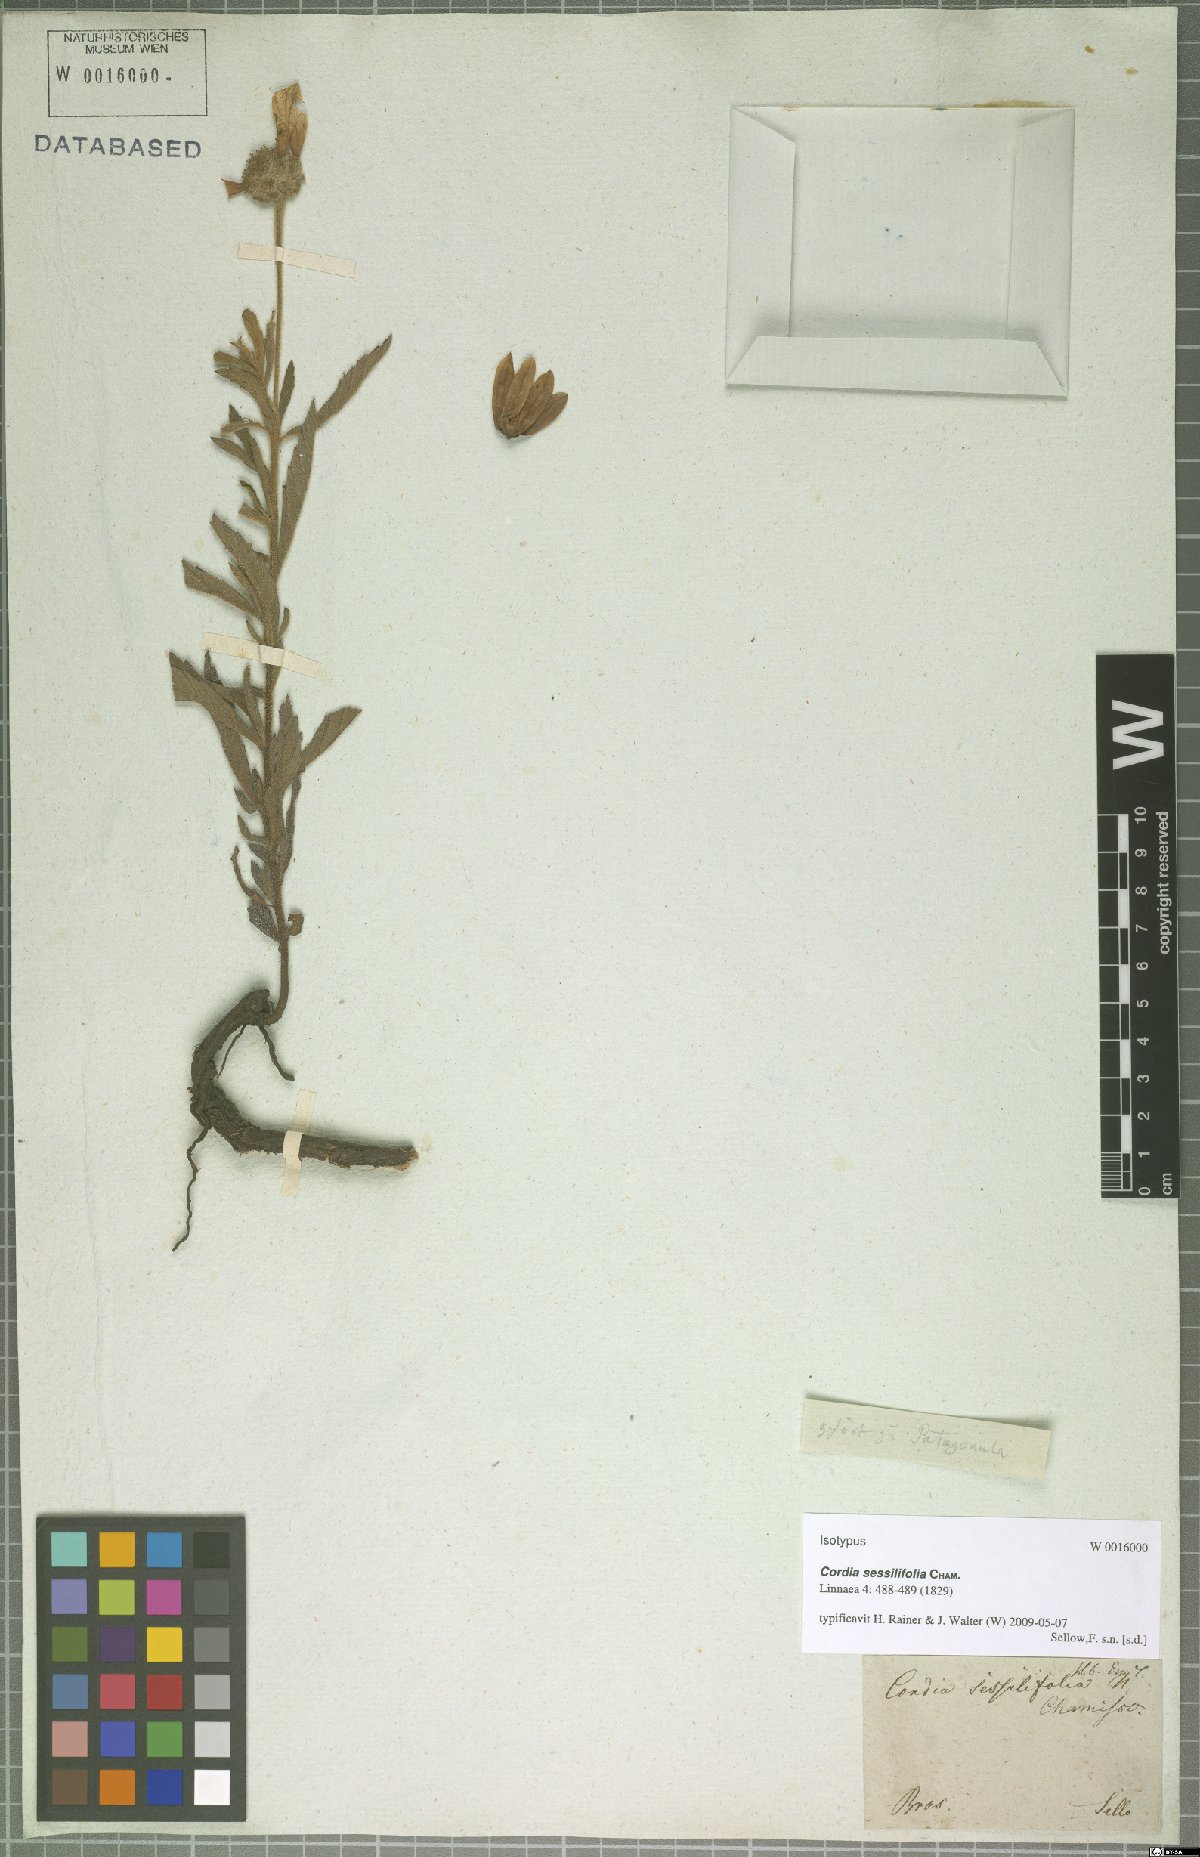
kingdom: Plantae
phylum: Tracheophyta
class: Magnoliopsida
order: Boraginales
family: Cordiaceae
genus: Varronia
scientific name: Varronia sessilifolia
